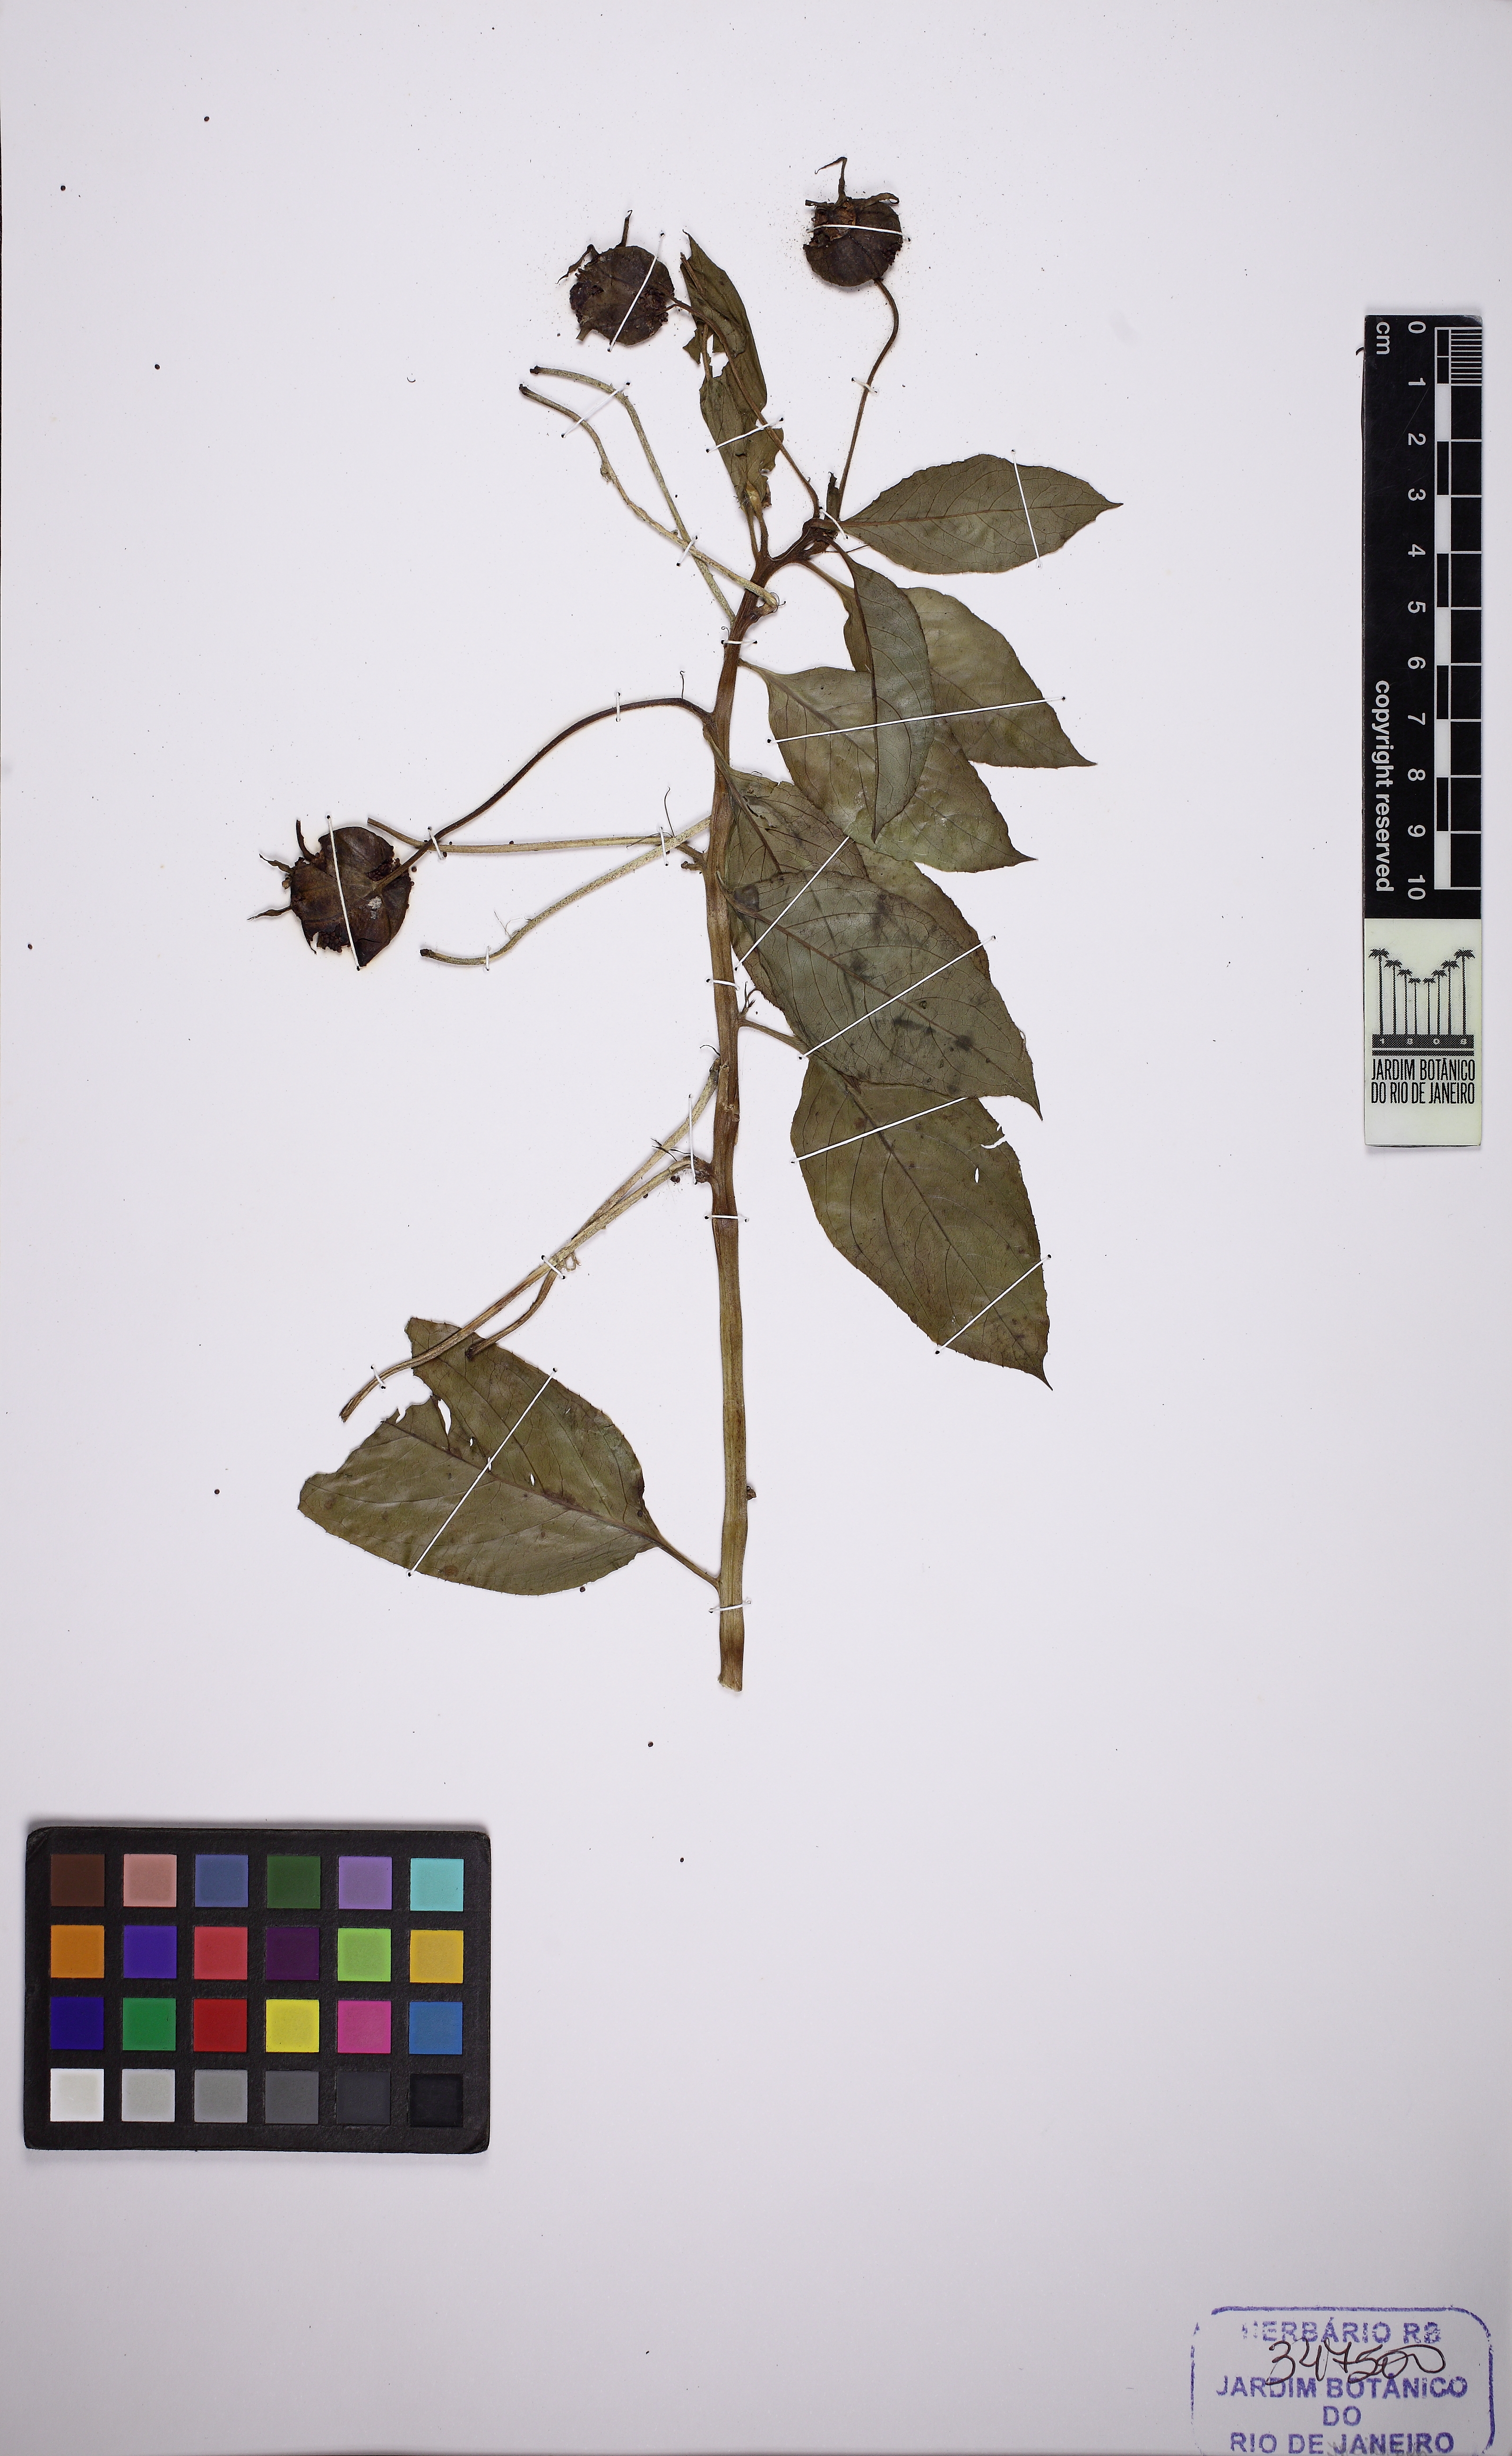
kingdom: Plantae
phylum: Tracheophyta
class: Magnoliopsida
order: Asterales
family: Campanulaceae
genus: Centropogon
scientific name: Centropogon cornutus
